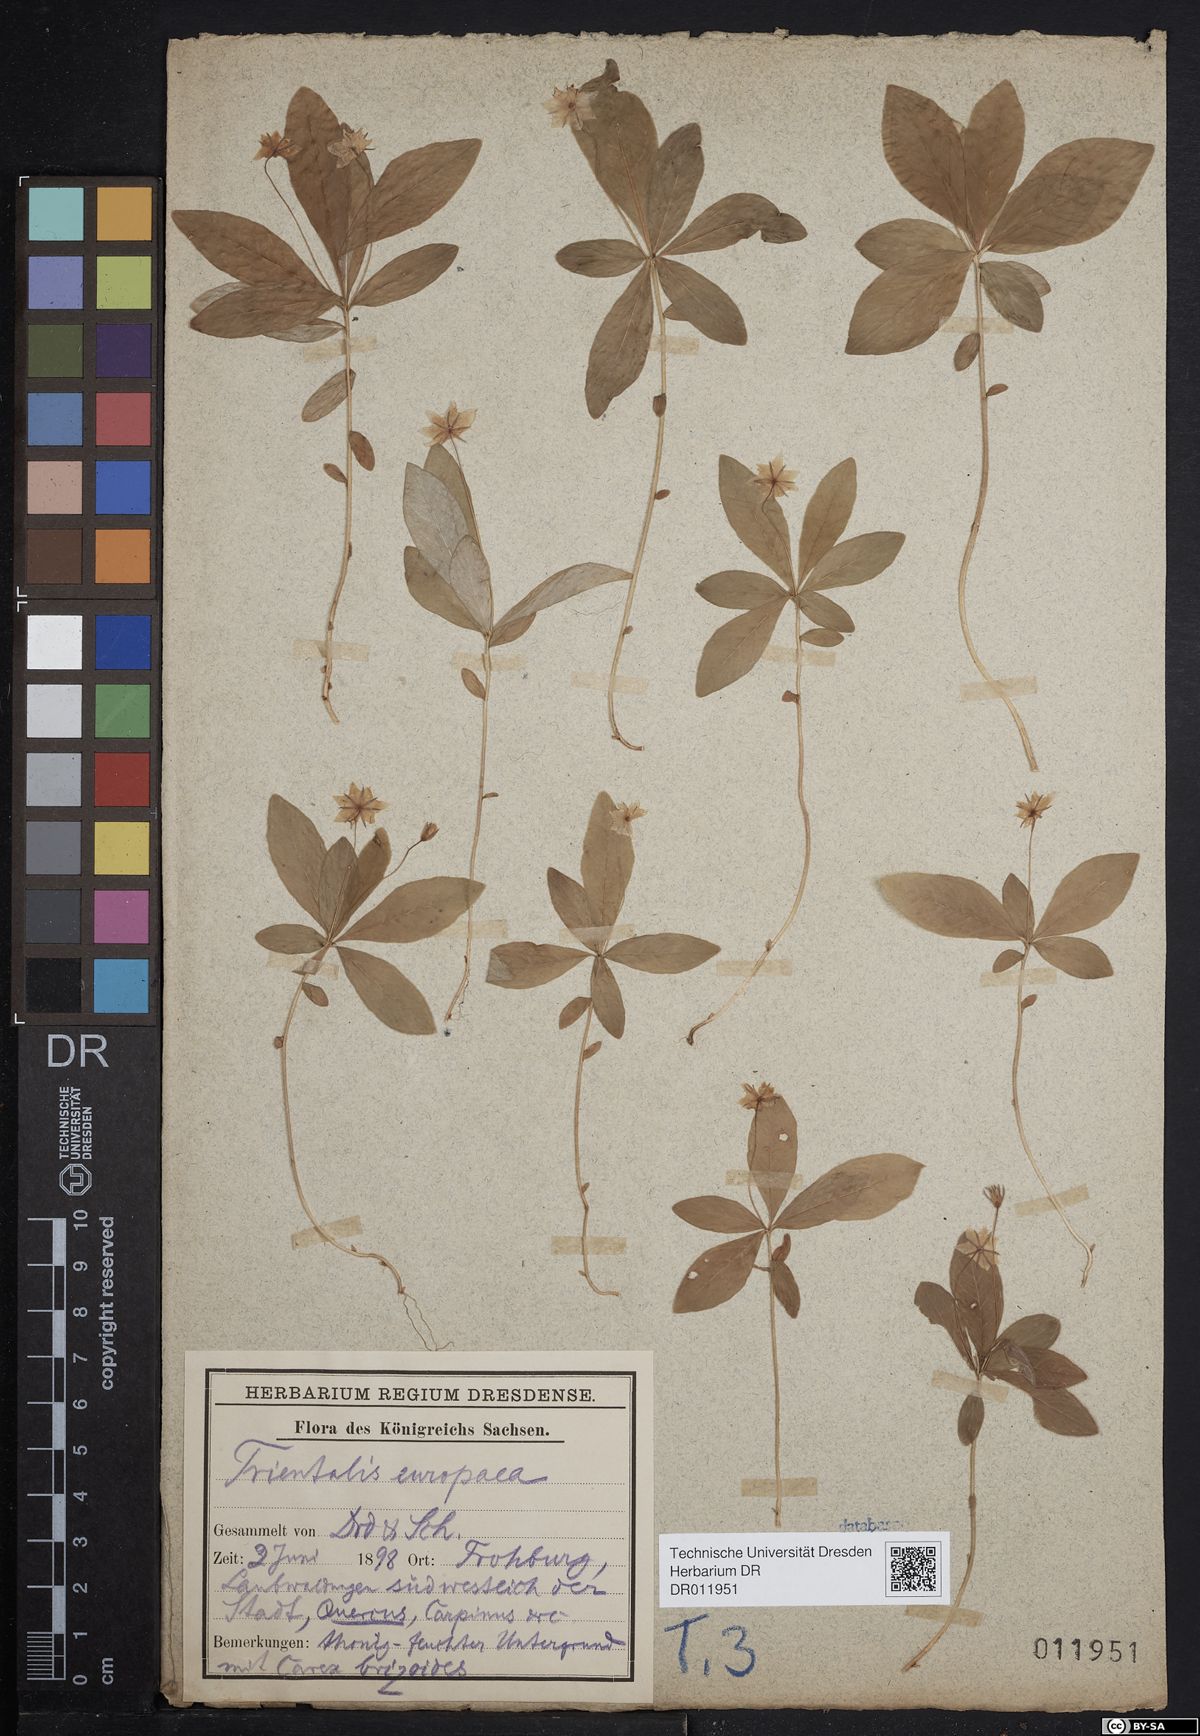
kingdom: Plantae
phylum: Tracheophyta
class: Magnoliopsida
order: Ericales
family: Primulaceae
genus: Lysimachia
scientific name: Lysimachia europaea
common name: Arctic starflower
